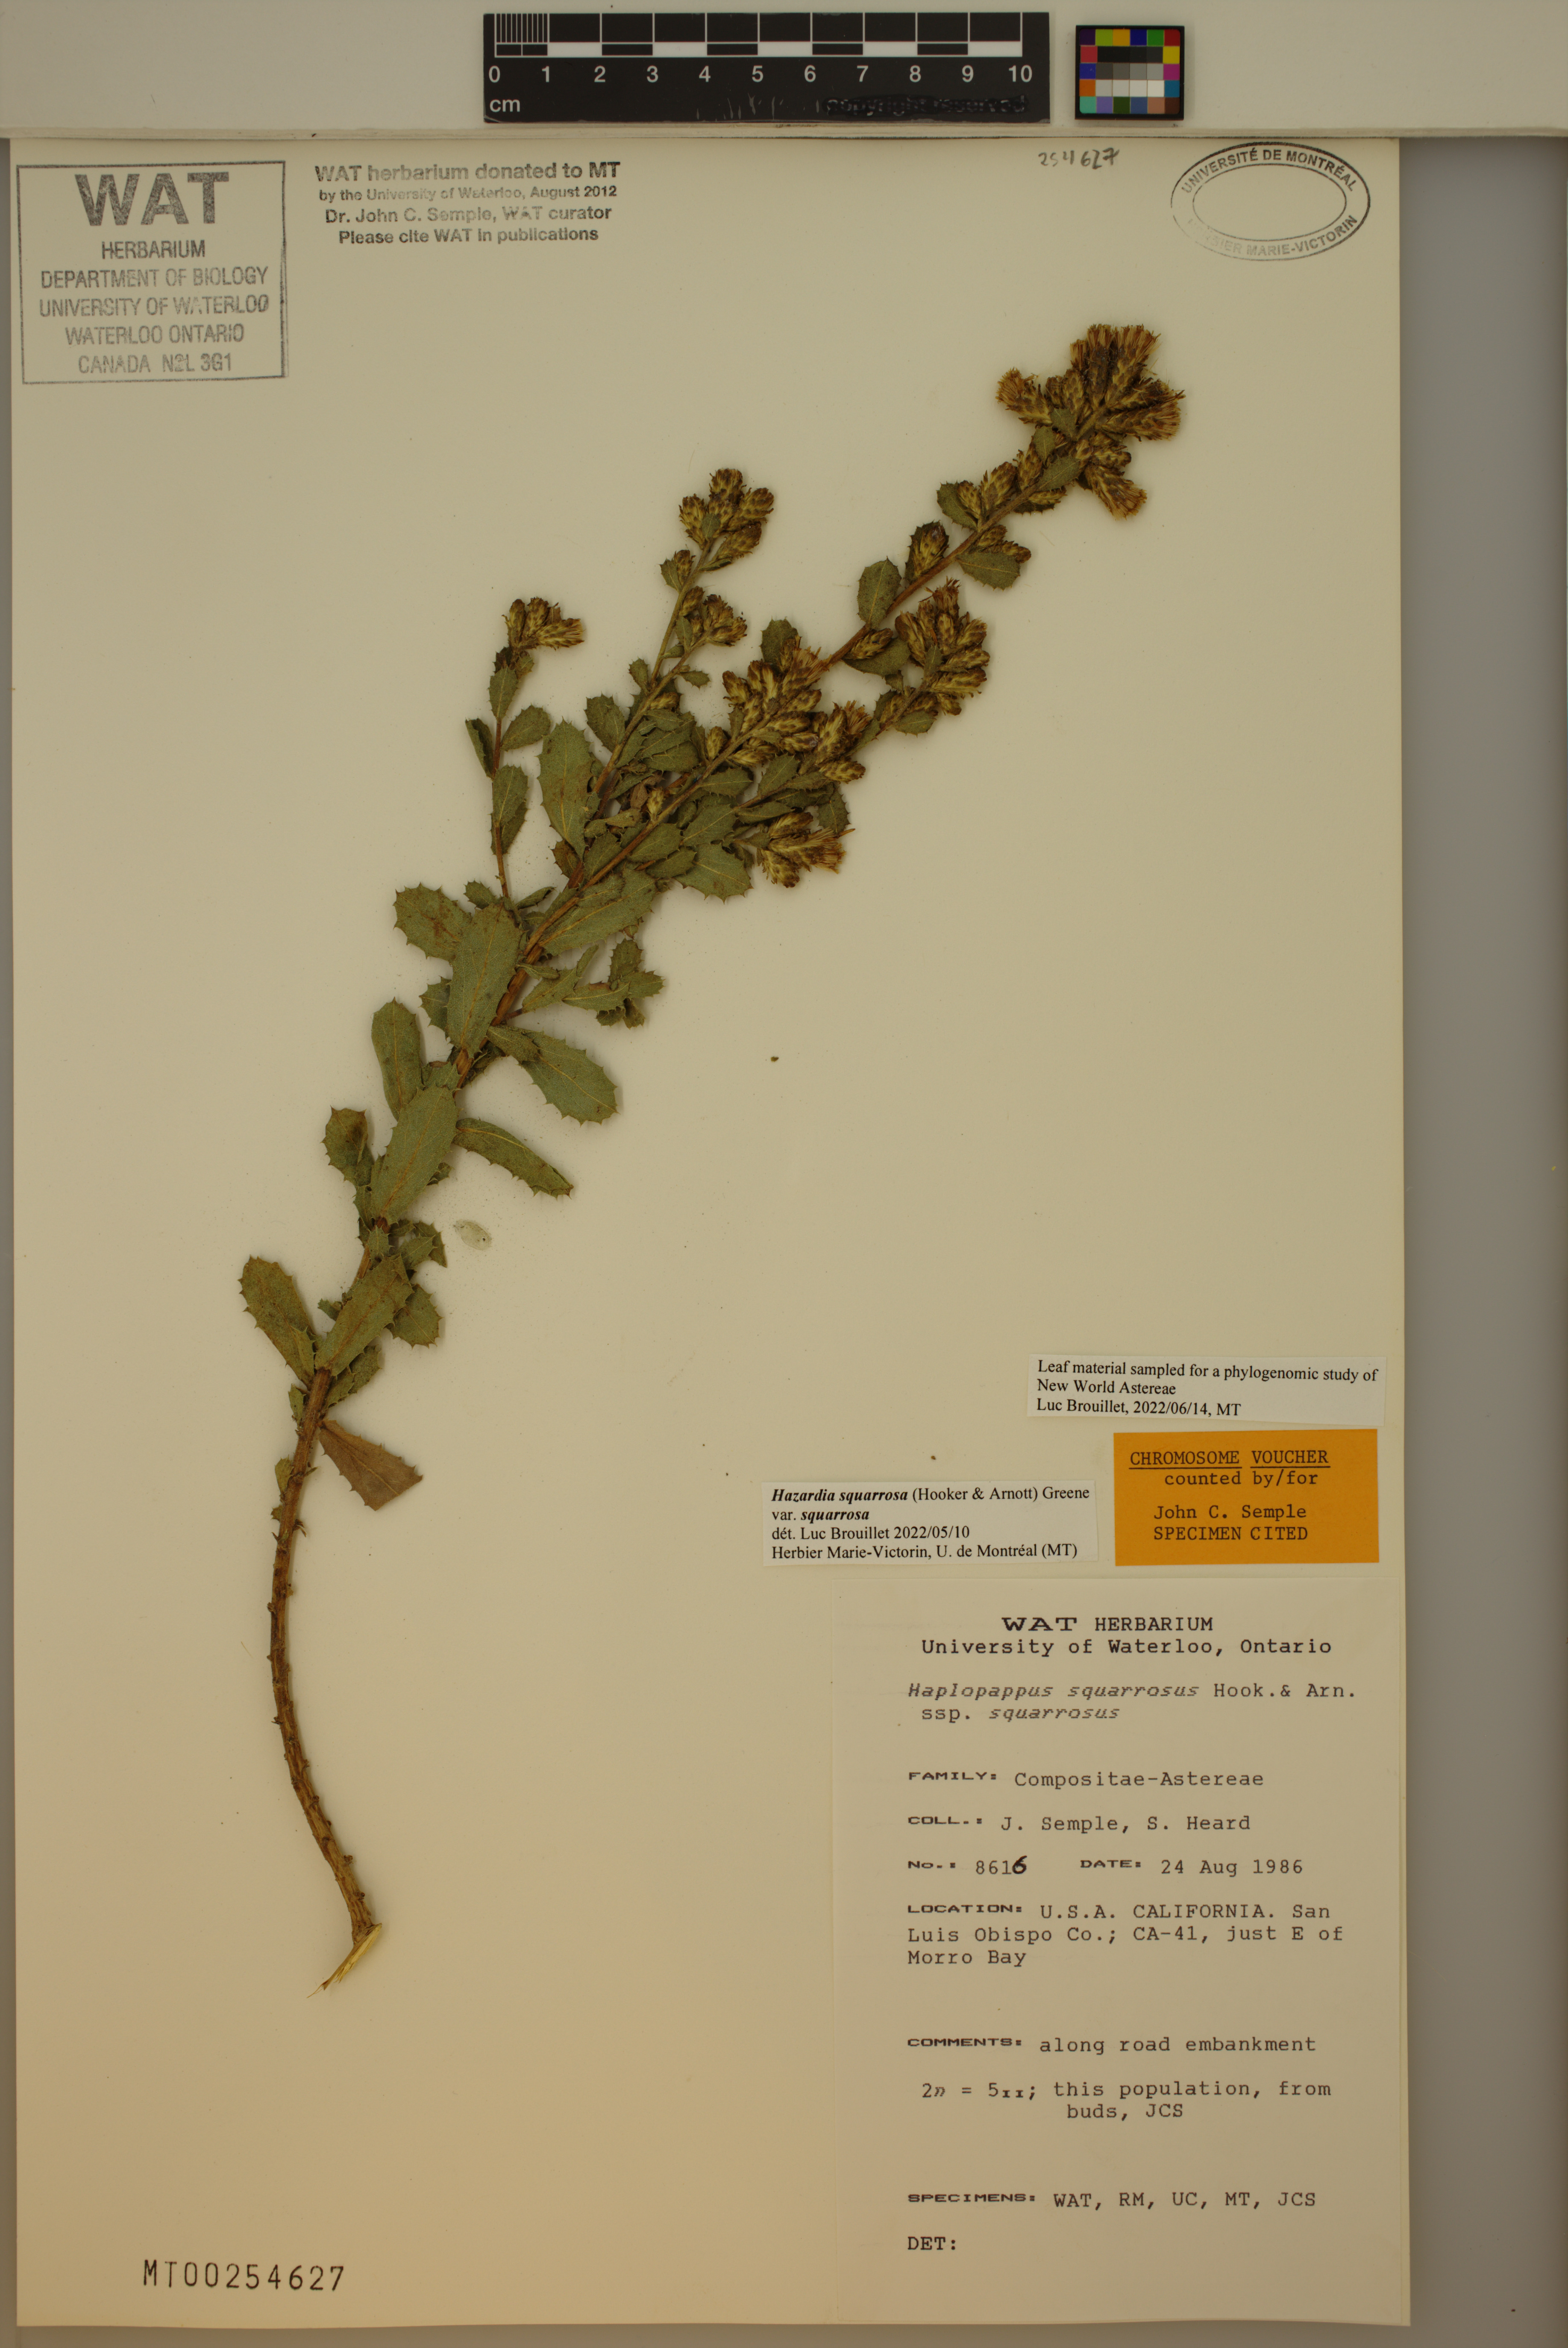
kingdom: Plantae
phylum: Tracheophyta
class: Magnoliopsida
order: Asterales
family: Asteraceae
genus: Hazardia
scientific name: Hazardia squarrosa
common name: Saw-tooth goldenbush
